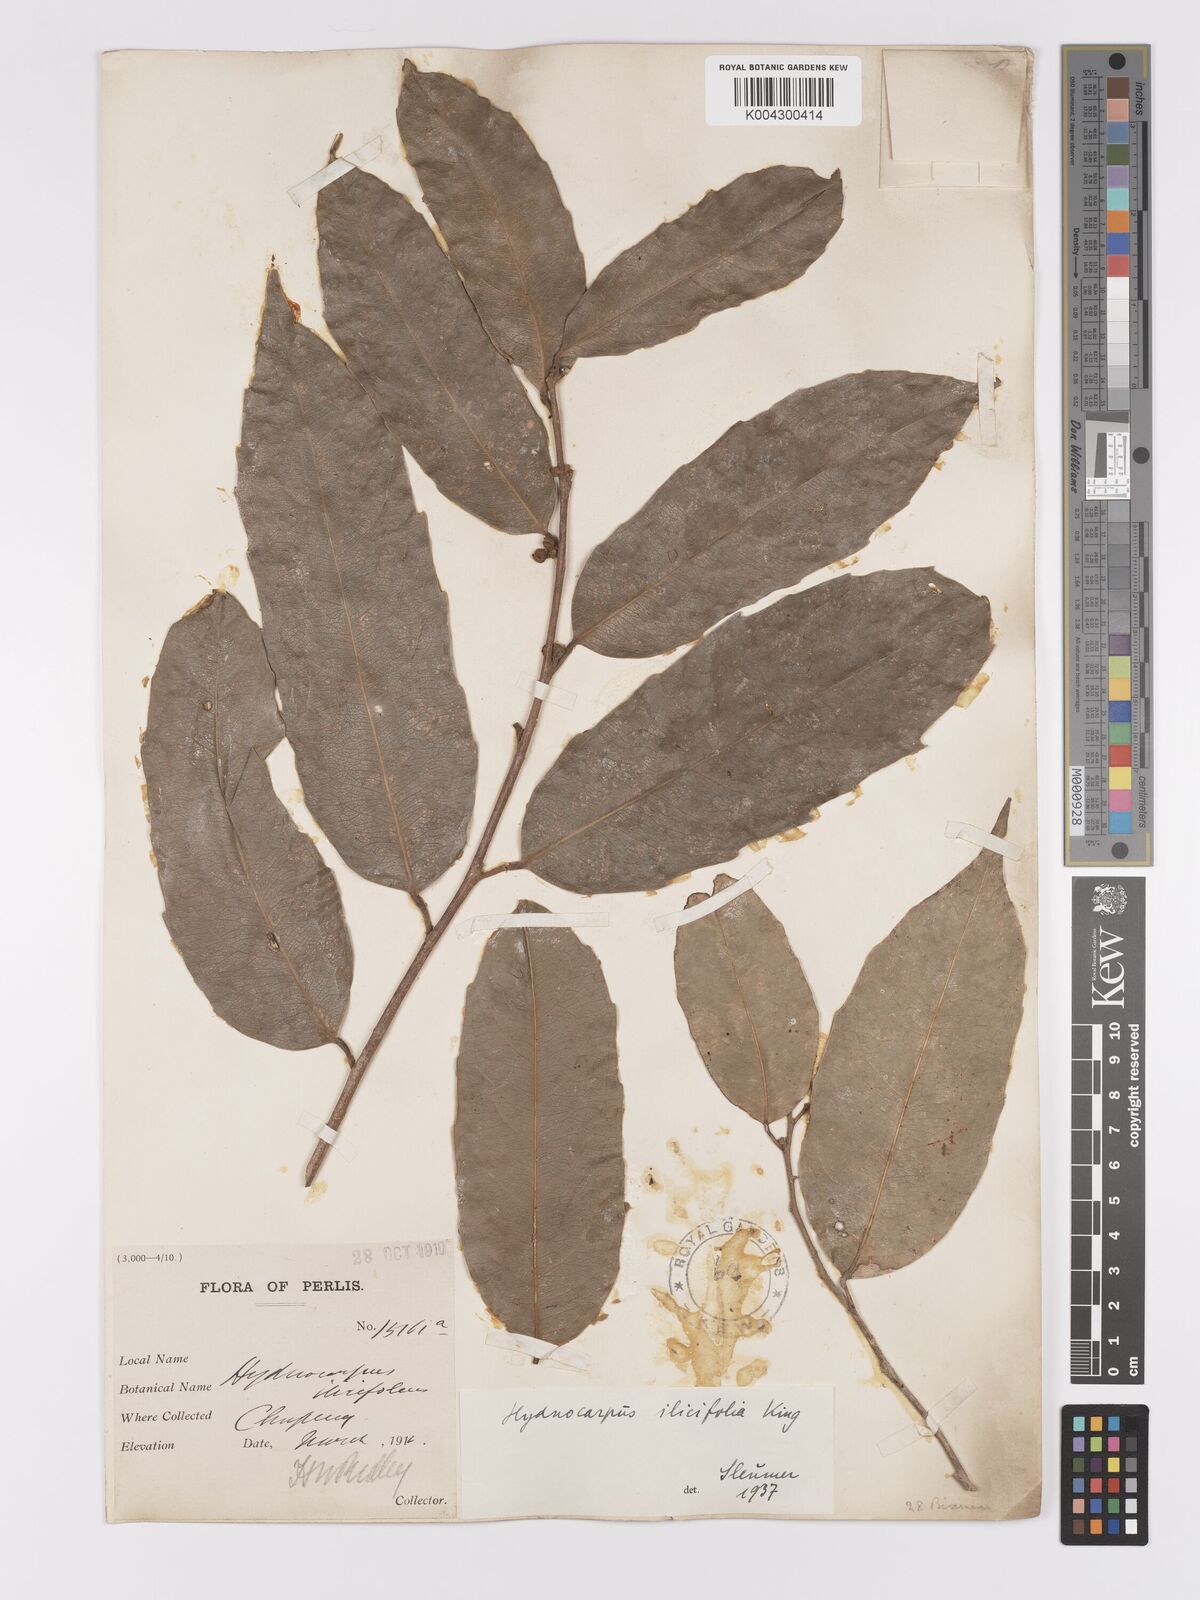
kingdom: Plantae
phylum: Tracheophyta
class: Magnoliopsida
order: Malpighiales
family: Achariaceae
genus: Hydnocarpus
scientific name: Hydnocarpus ilicifolius
